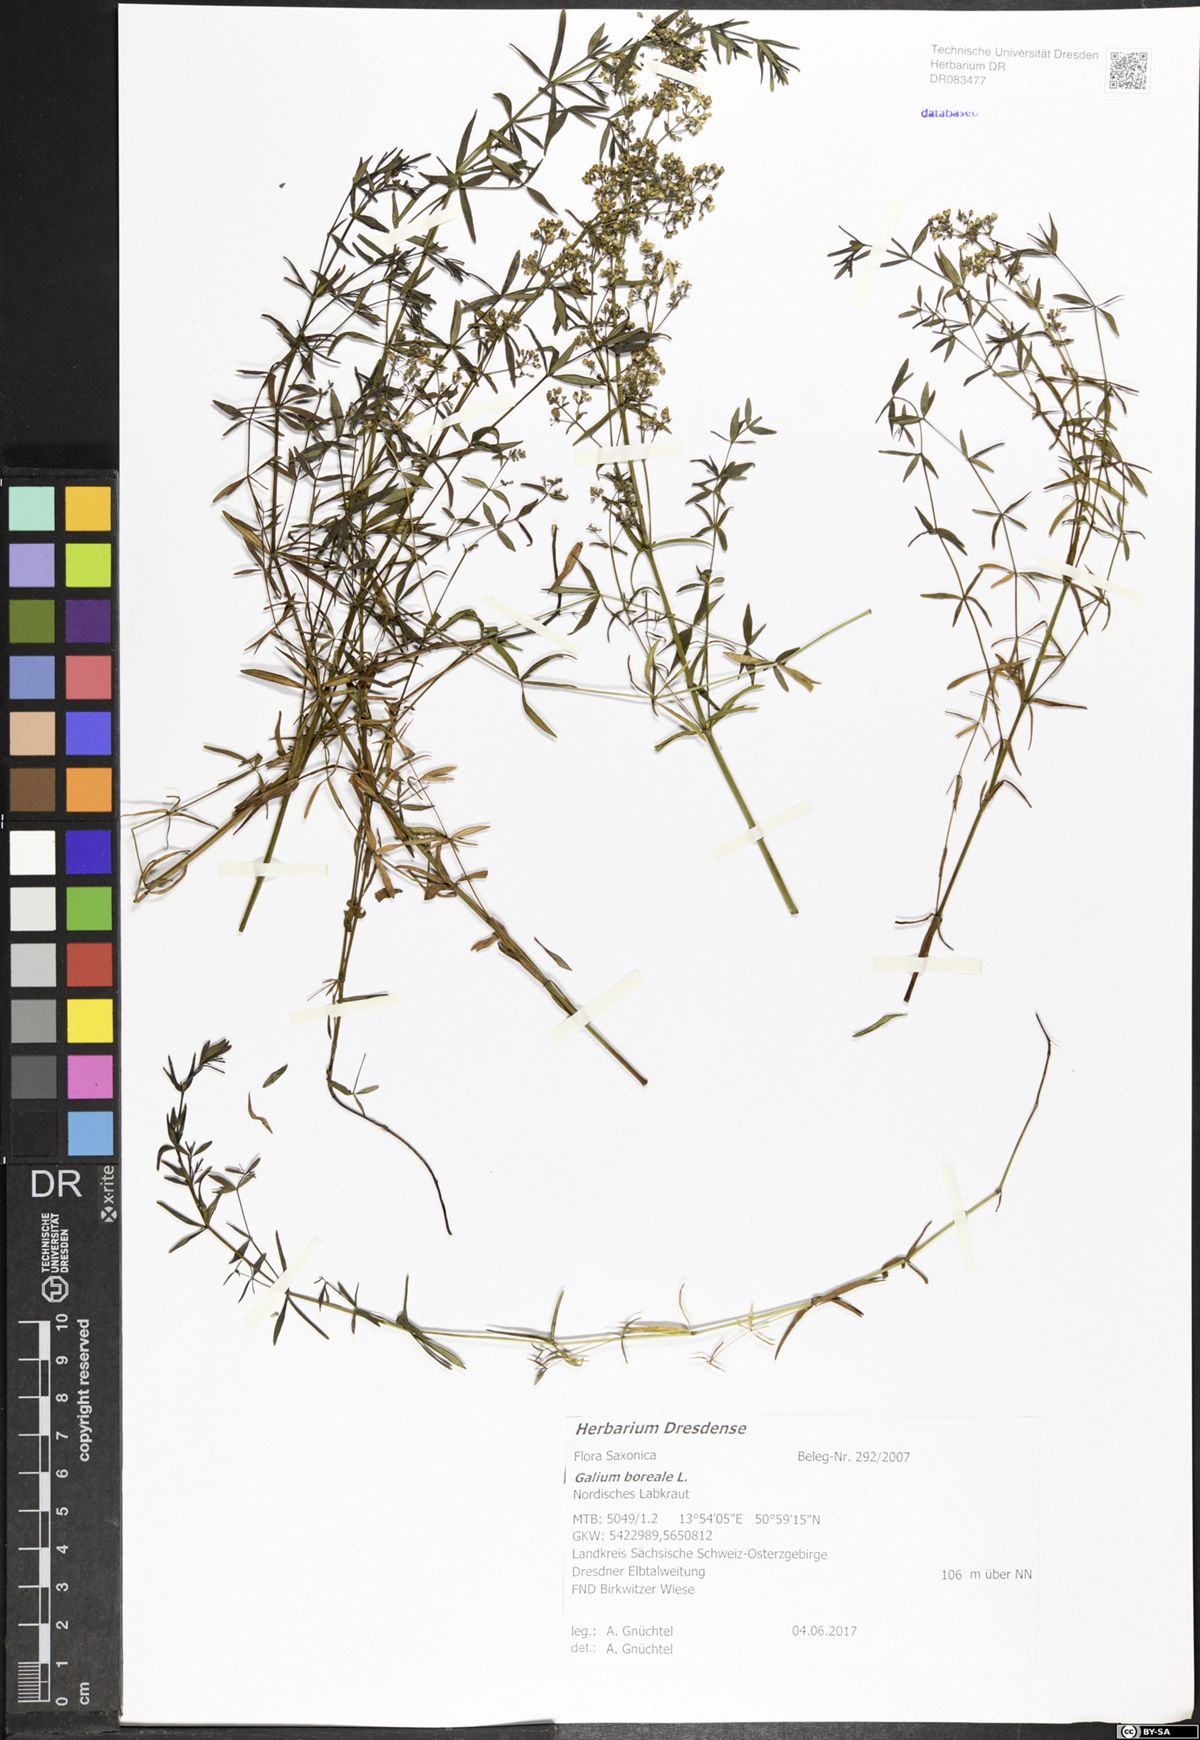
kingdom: Plantae
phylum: Tracheophyta
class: Magnoliopsida
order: Gentianales
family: Rubiaceae
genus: Galium
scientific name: Galium boreale
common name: Northern bedstraw
